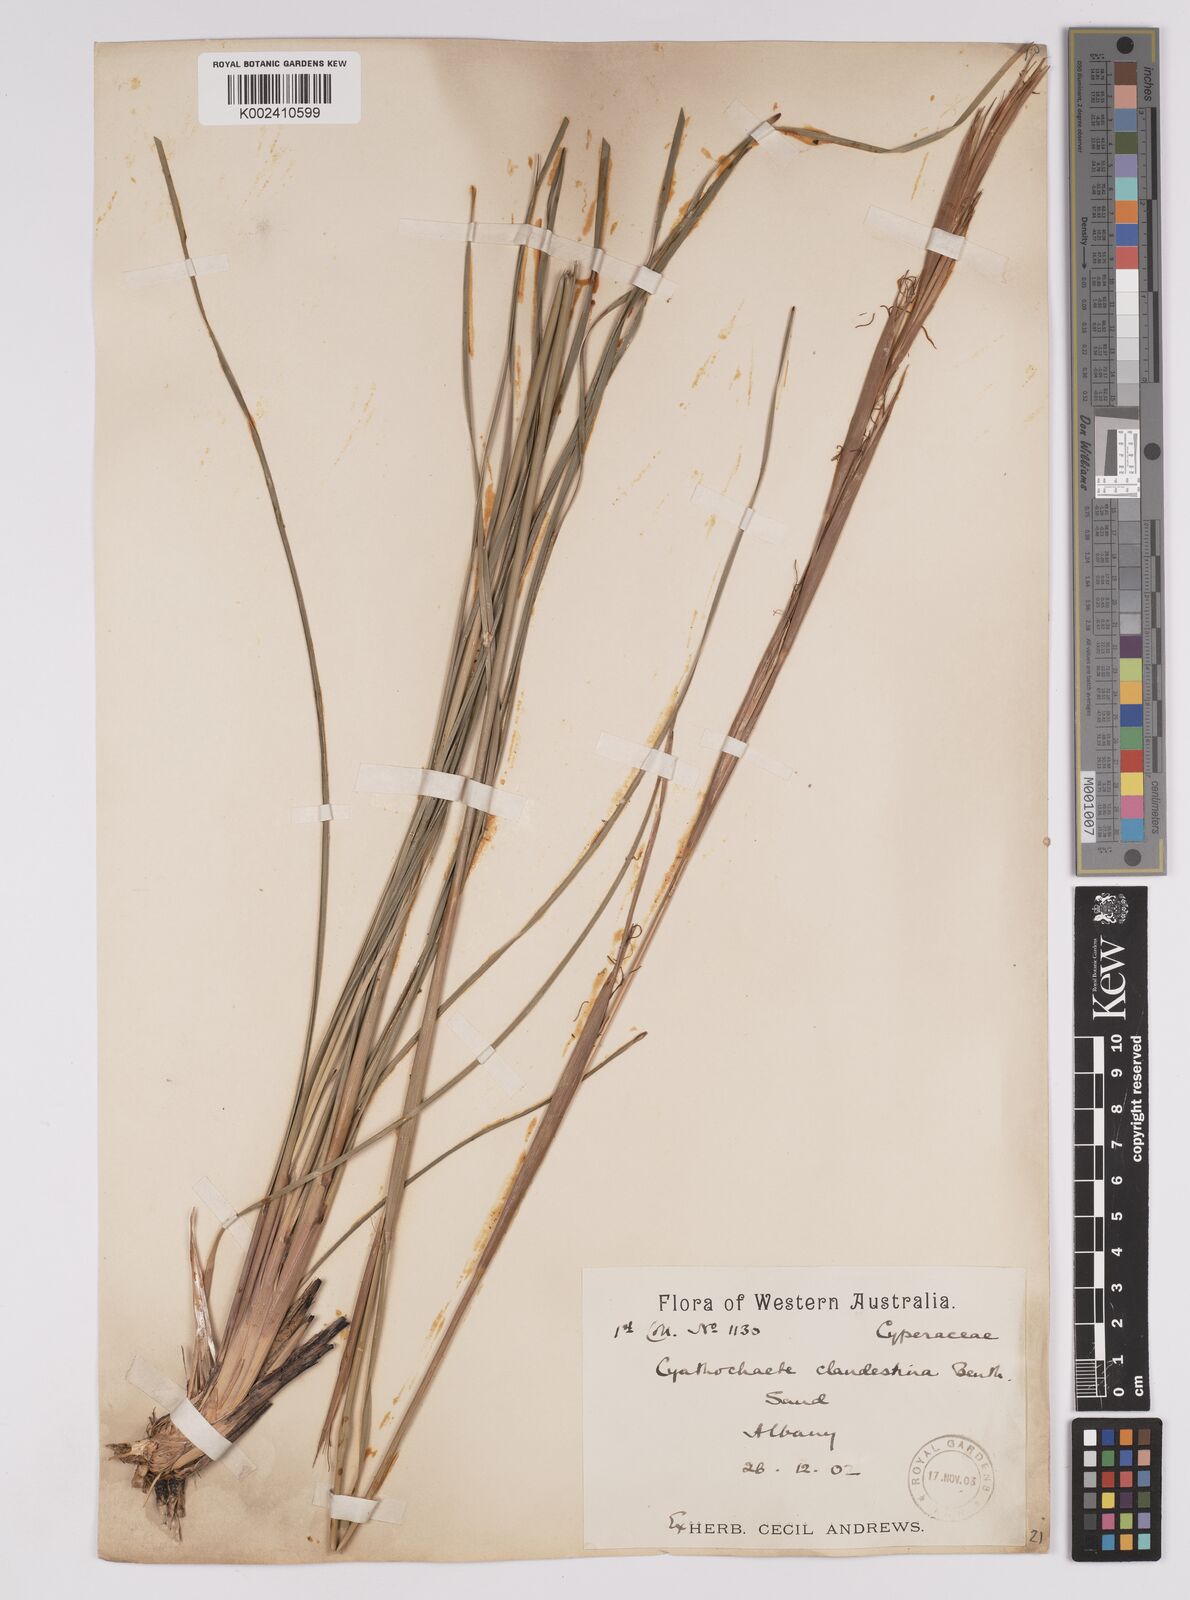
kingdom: Plantae
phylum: Tracheophyta
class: Liliopsida
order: Poales
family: Cyperaceae
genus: Cyathochaeta
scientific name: Cyathochaeta clandestina
